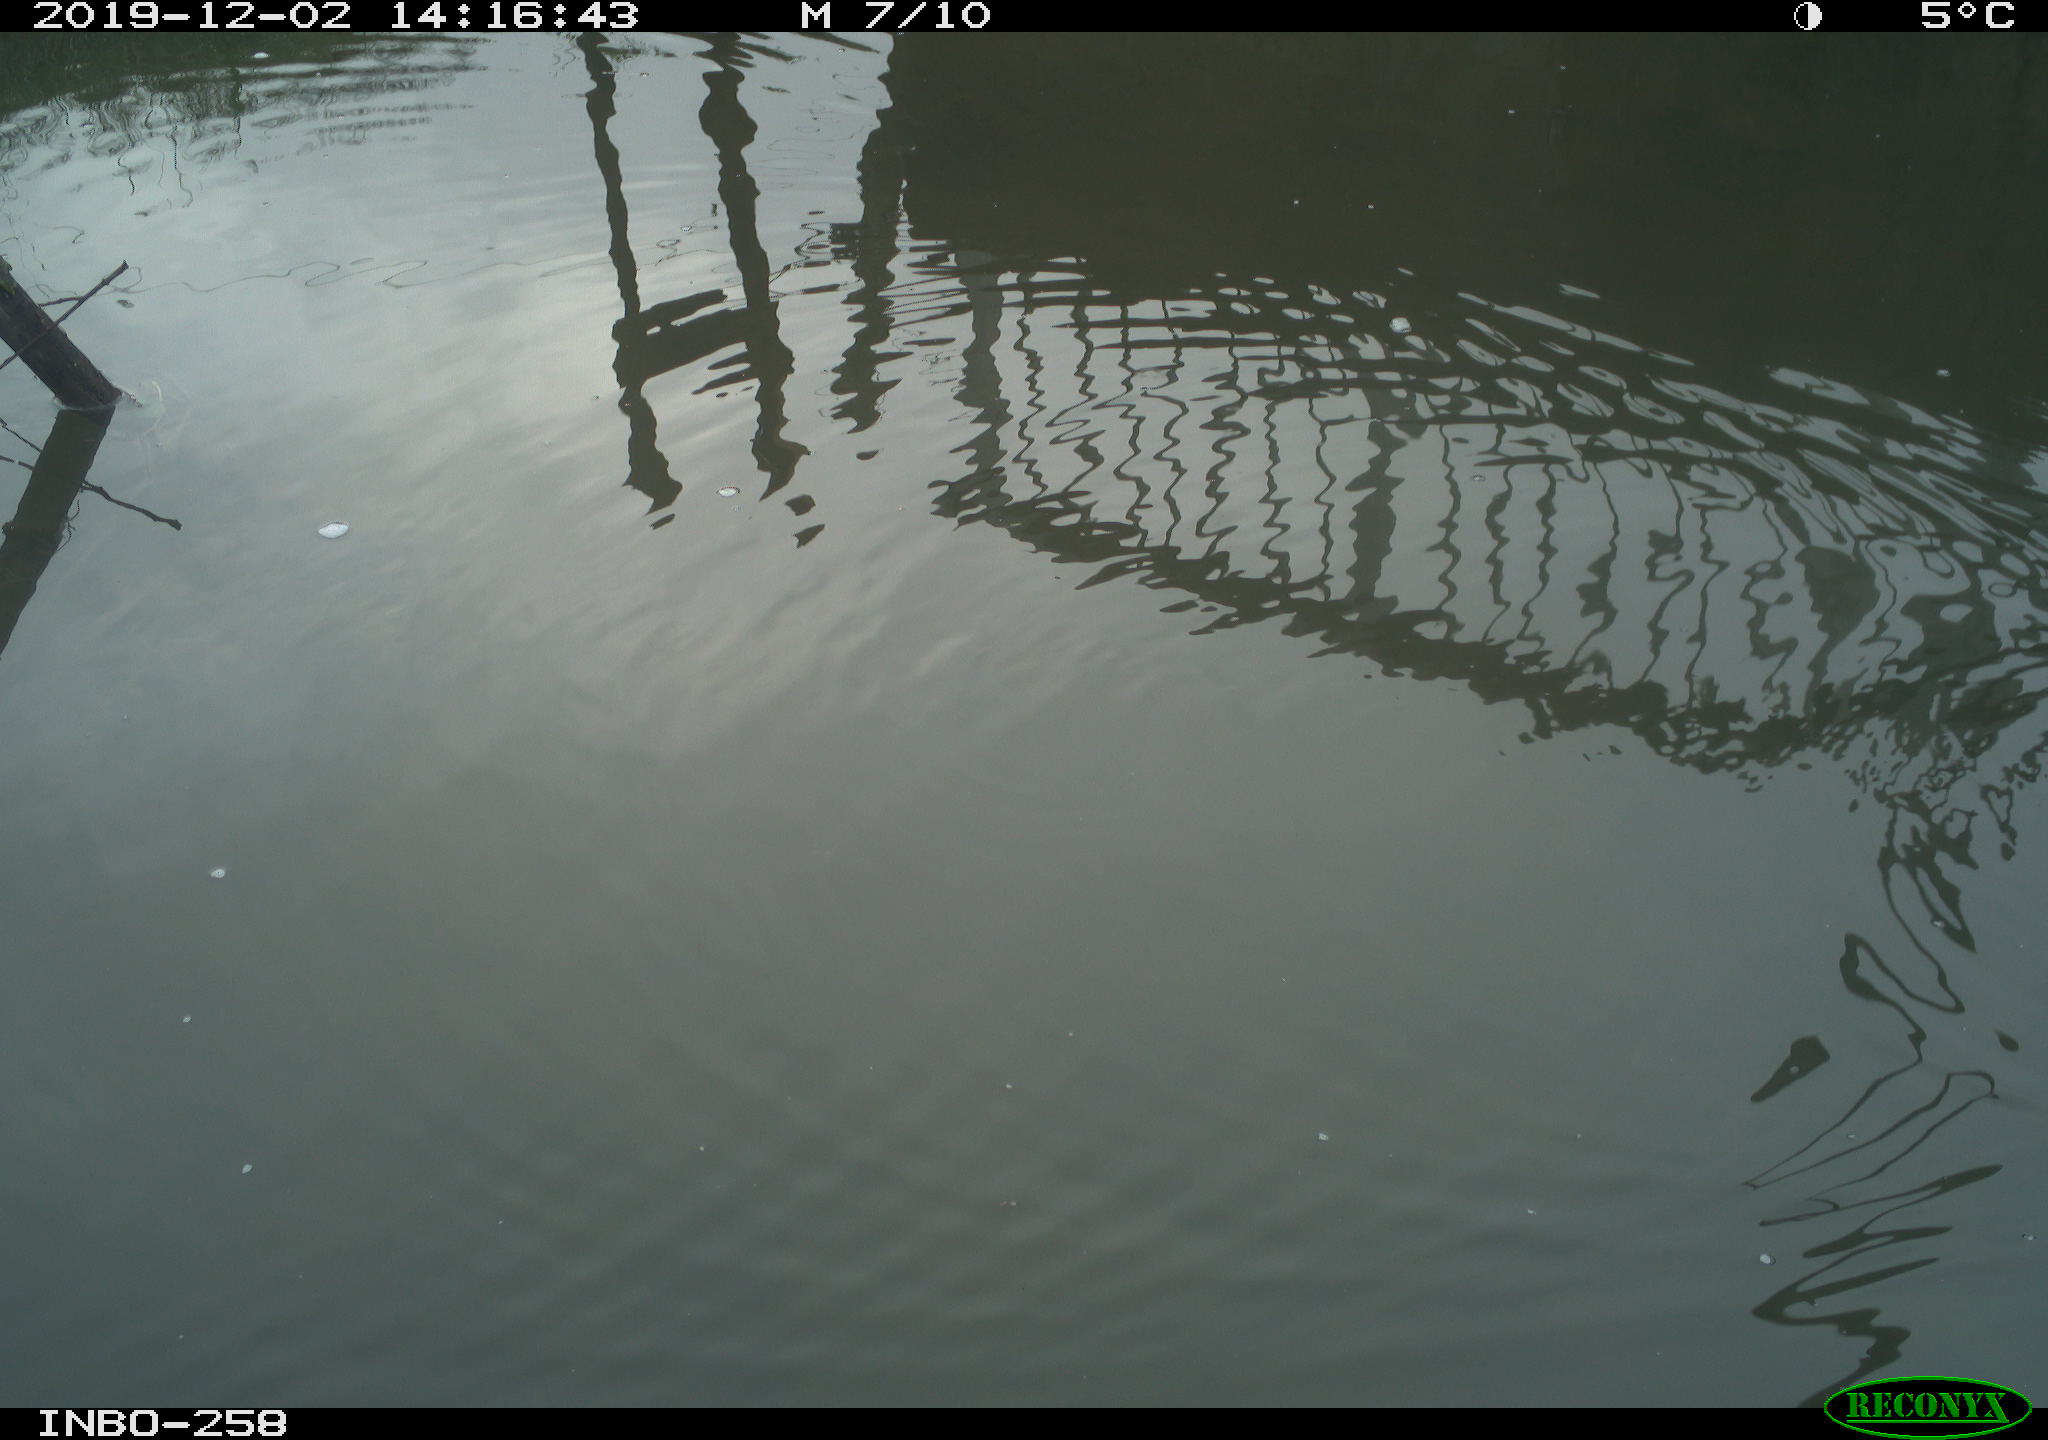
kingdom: Animalia
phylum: Chordata
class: Aves
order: Gruiformes
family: Rallidae
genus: Gallinula
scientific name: Gallinula chloropus
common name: Common moorhen
